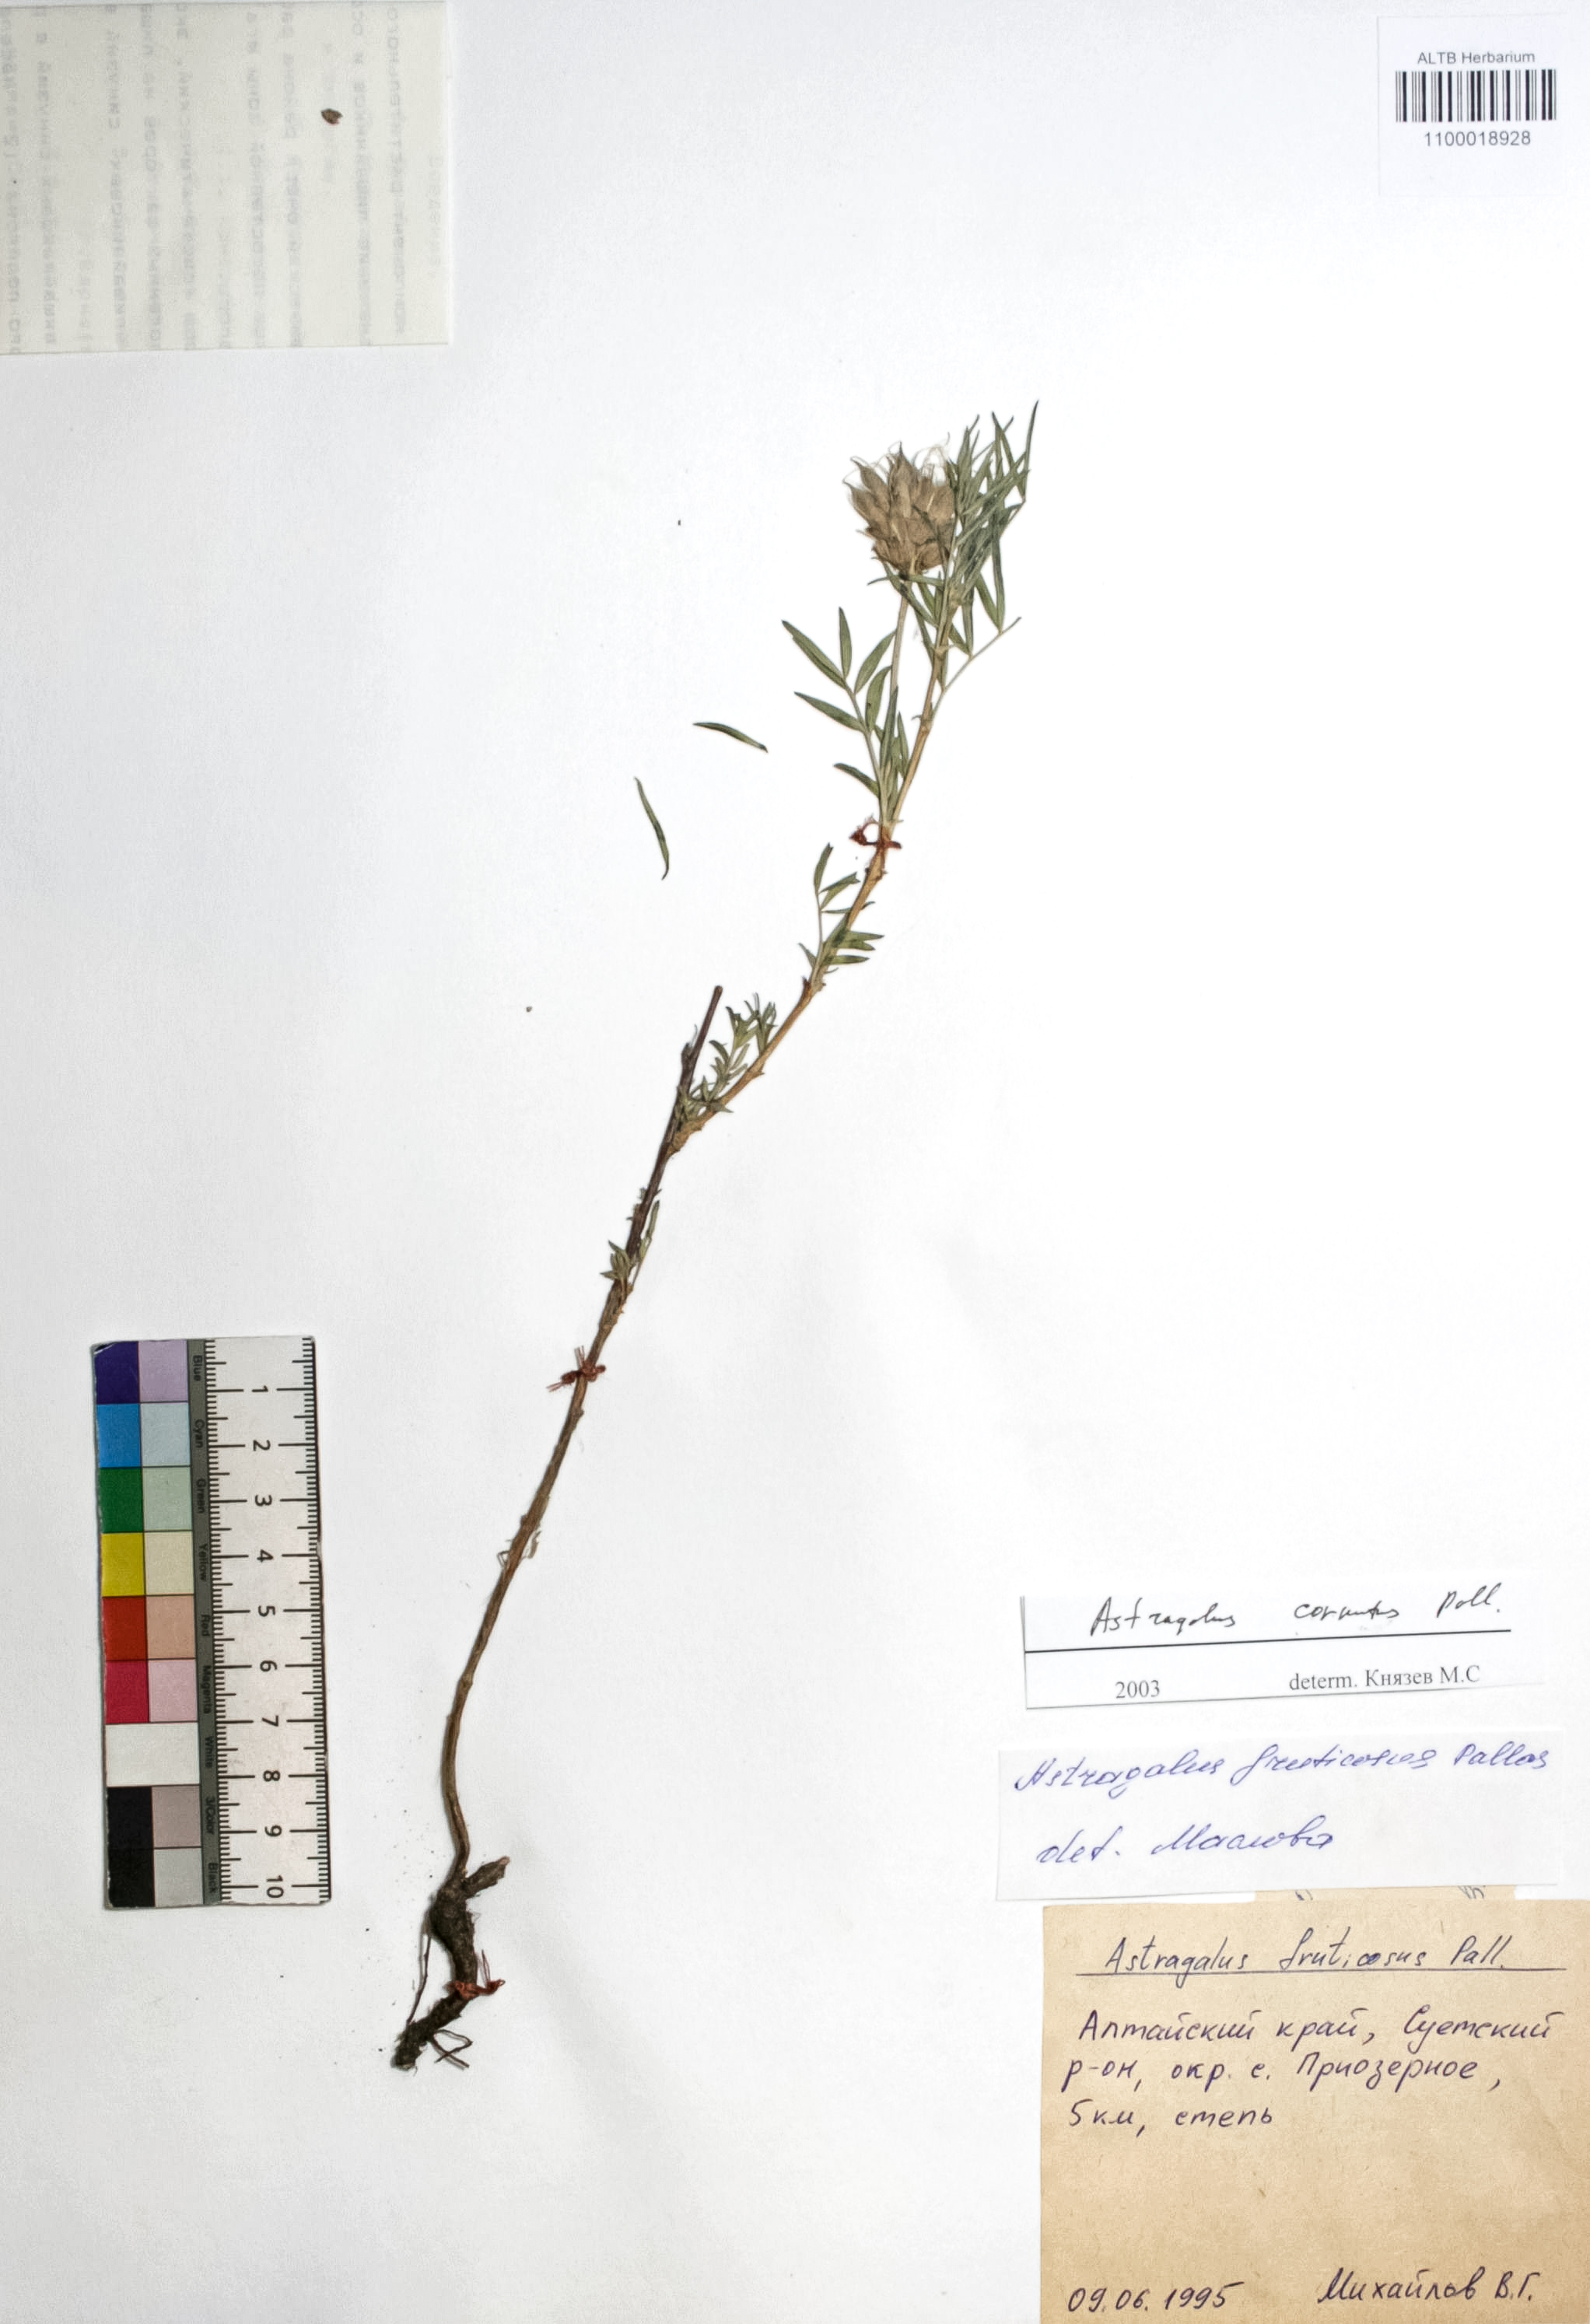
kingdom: Plantae
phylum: Tracheophyta
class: Magnoliopsida
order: Fabales
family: Fabaceae
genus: Astragalus
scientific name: Astragalus cornutus
